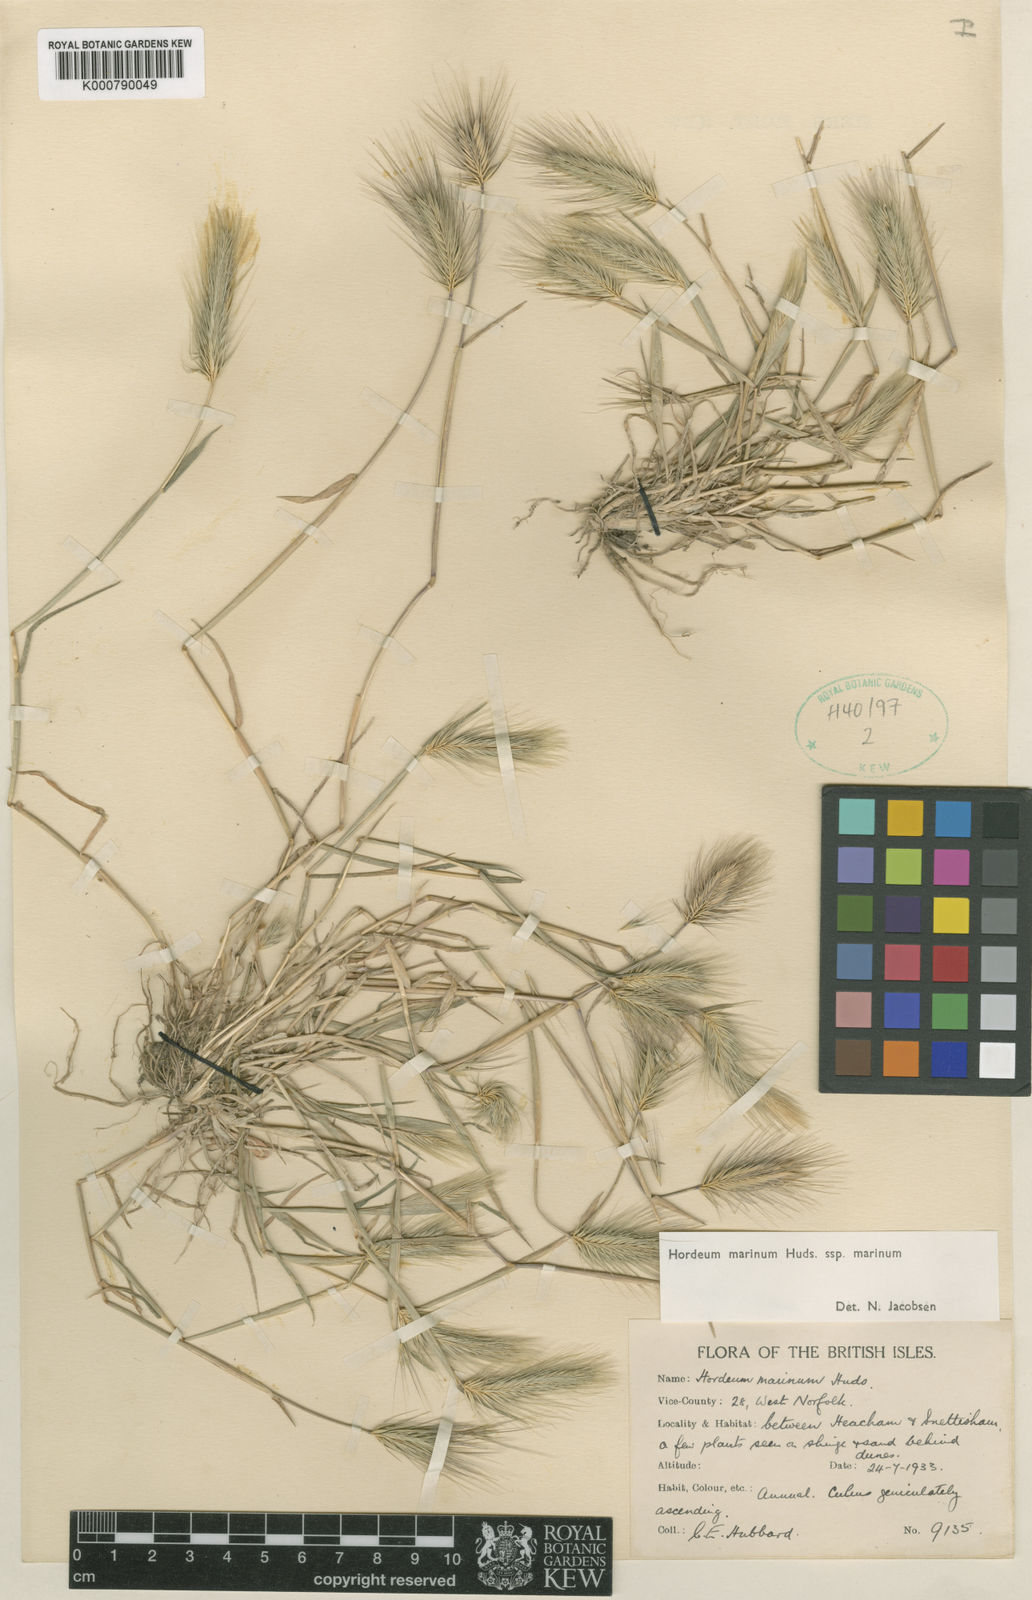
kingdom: Plantae
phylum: Tracheophyta
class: Liliopsida
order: Poales
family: Poaceae
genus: Hordeum
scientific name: Hordeum marinum
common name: Sea barley
